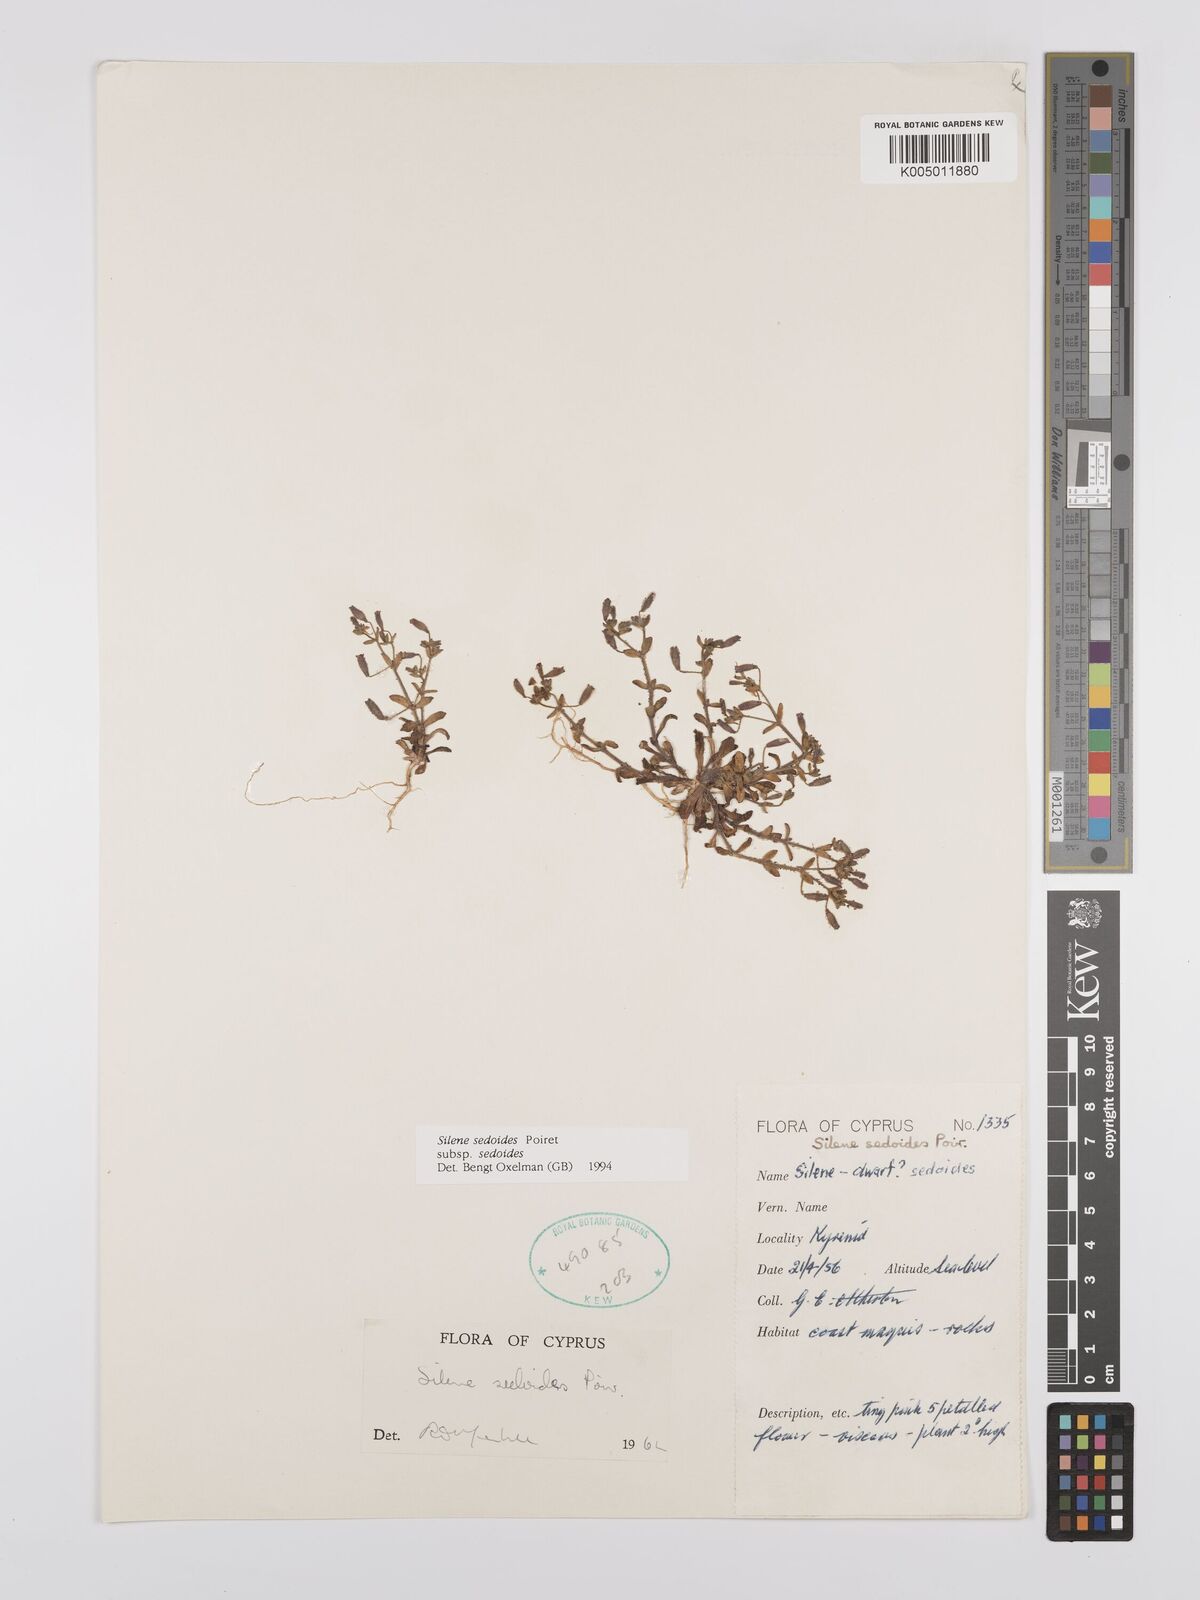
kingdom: Plantae
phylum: Tracheophyta
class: Magnoliopsida
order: Caryophyllales
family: Caryophyllaceae
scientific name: Caryophyllaceae
